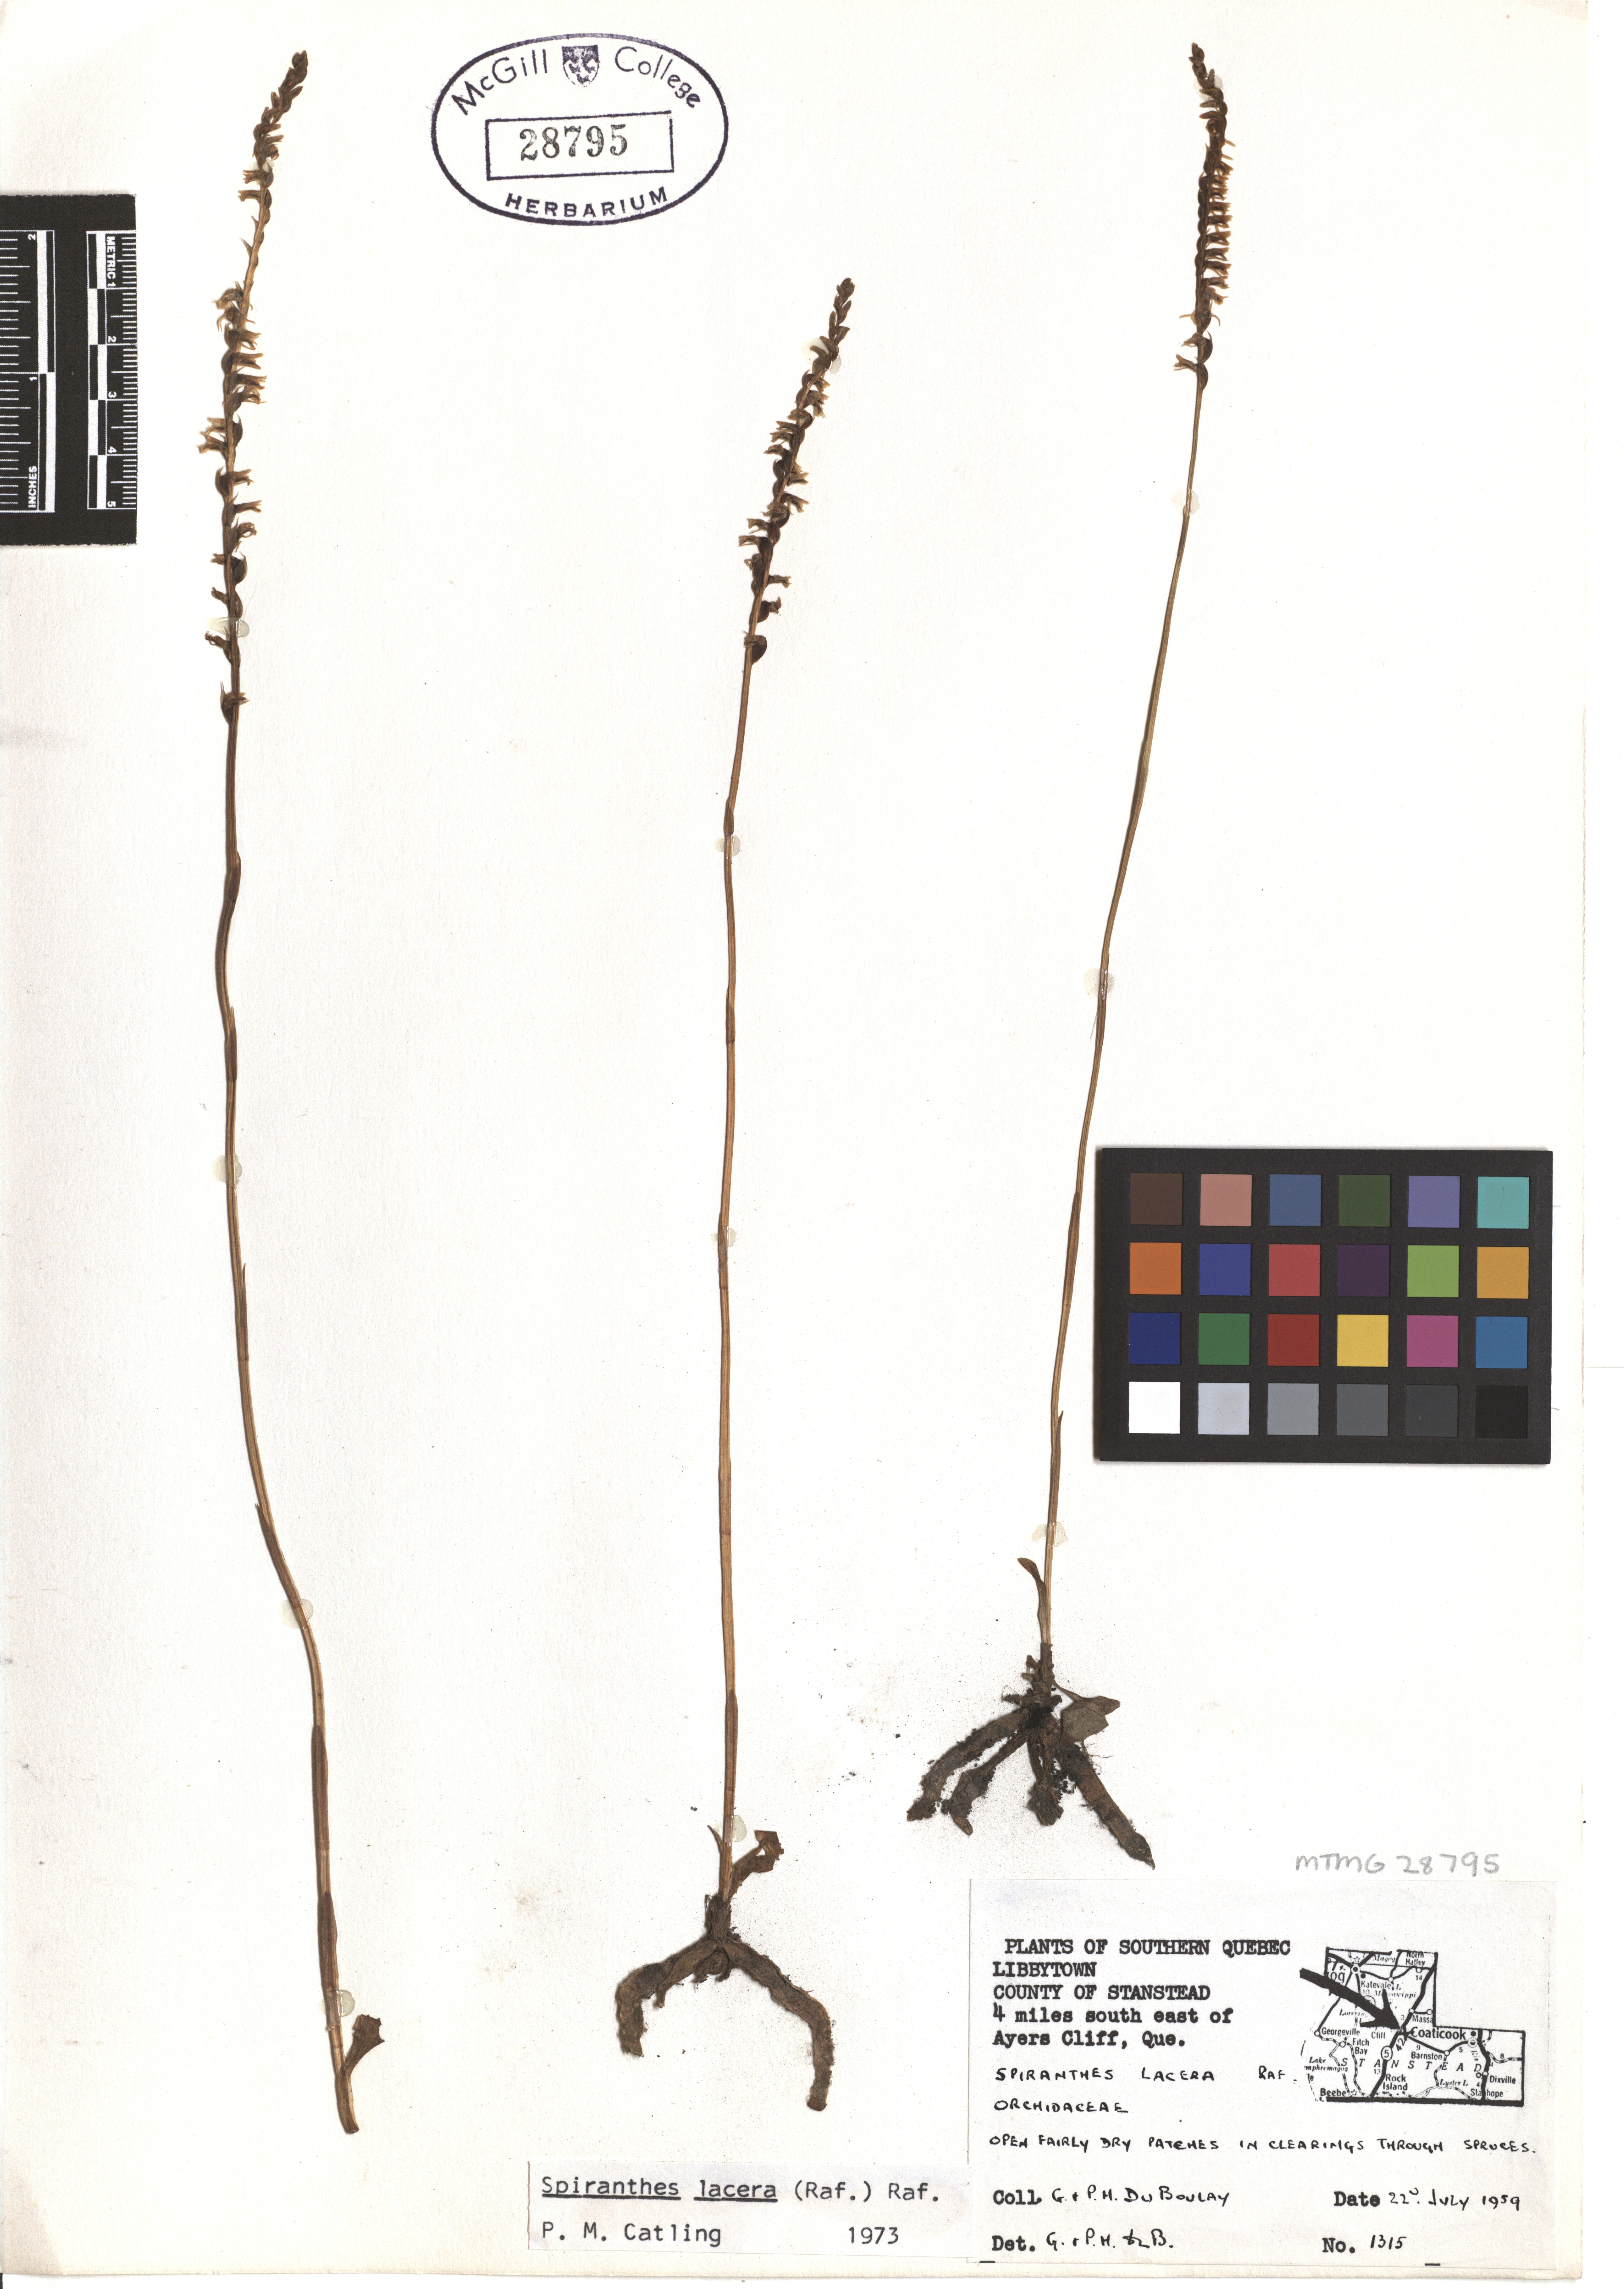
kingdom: Plantae
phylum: Tracheophyta
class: Liliopsida
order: Asparagales
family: Orchidaceae
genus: Spiranthes
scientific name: Spiranthes lacera
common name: Northern slender ladies'-tresses
